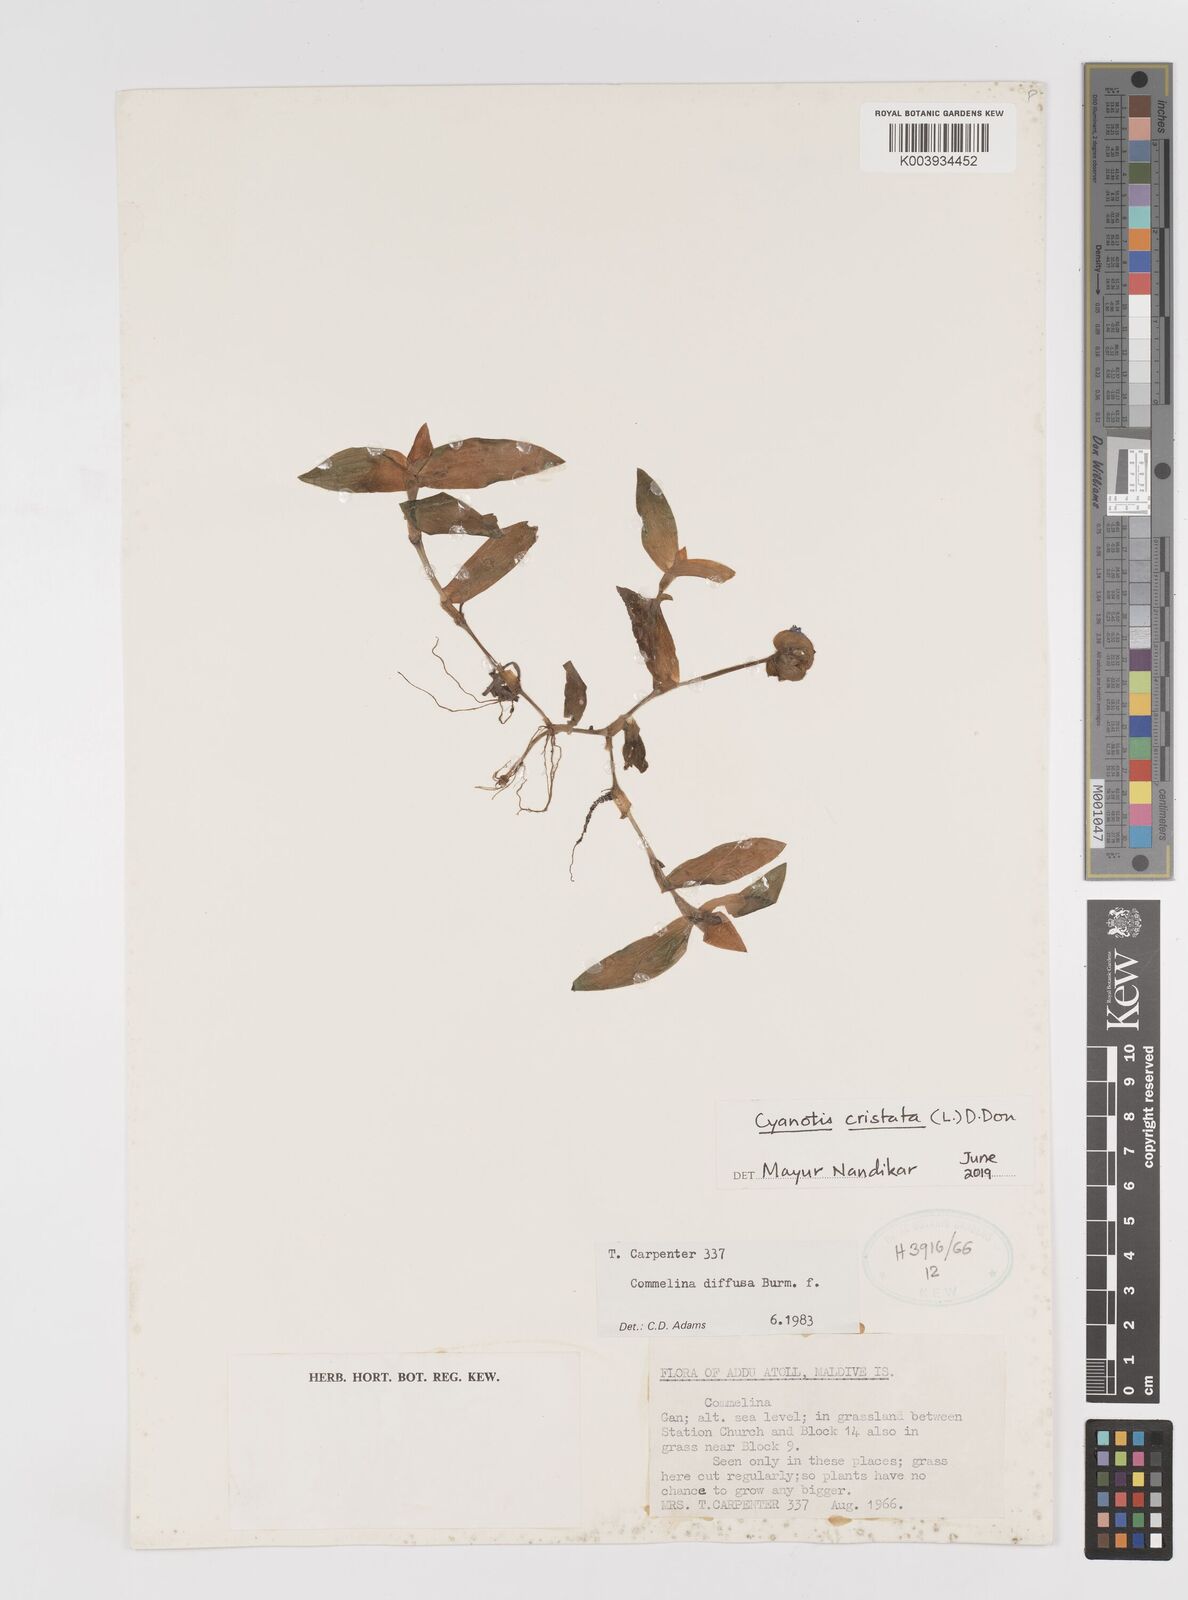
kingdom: Plantae
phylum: Tracheophyta
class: Liliopsida
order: Commelinales
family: Commelinaceae
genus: Cyanotis
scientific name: Cyanotis cristata
